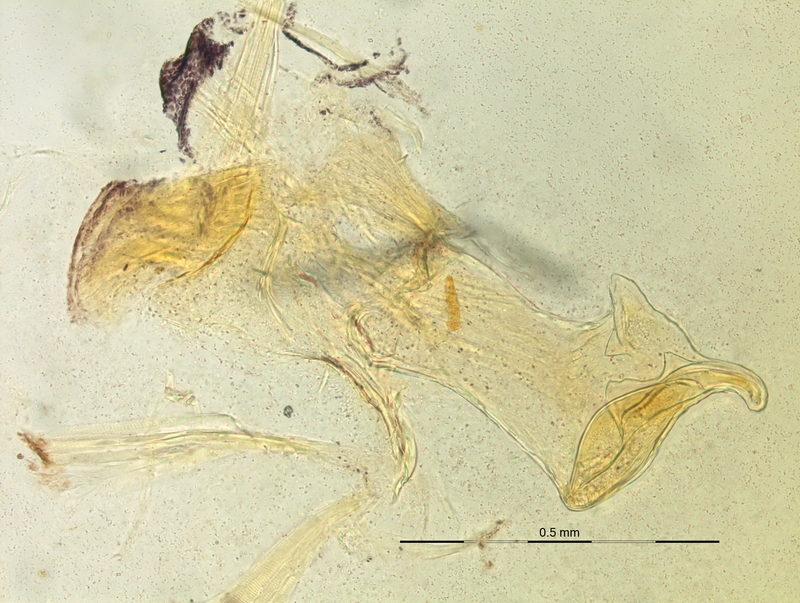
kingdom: Animalia
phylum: Arthropoda
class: Diplopoda
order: Chordeumatida
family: Craspedosomatidae
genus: Craspedosoma
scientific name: Craspedosoma alemannicum
